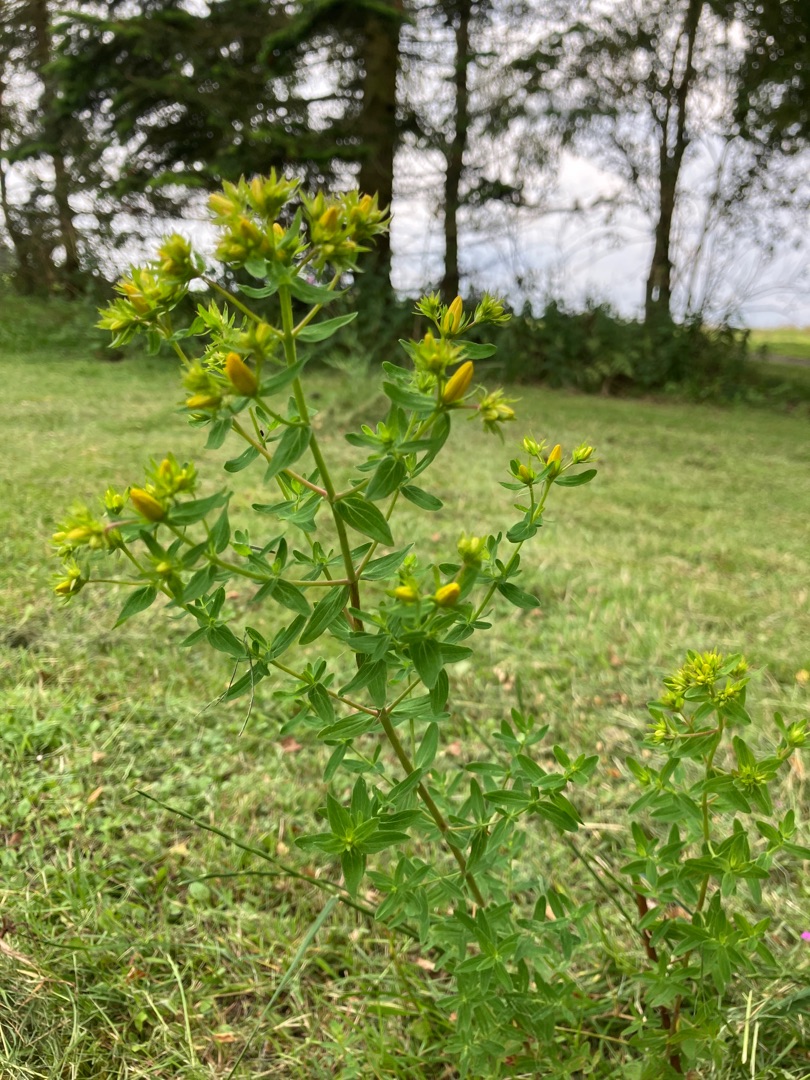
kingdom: Plantae
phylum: Tracheophyta
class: Magnoliopsida
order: Malpighiales
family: Hypericaceae
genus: Hypericum
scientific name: Hypericum perforatum
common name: Prikbladet perikon
